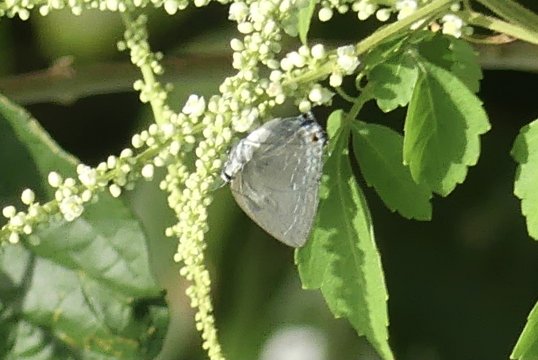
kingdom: Animalia
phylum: Arthropoda
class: Insecta
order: Lepidoptera
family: Lycaenidae
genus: Strephonota
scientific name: Strephonota tephraeus
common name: Pearly-Gray Hairstreak
